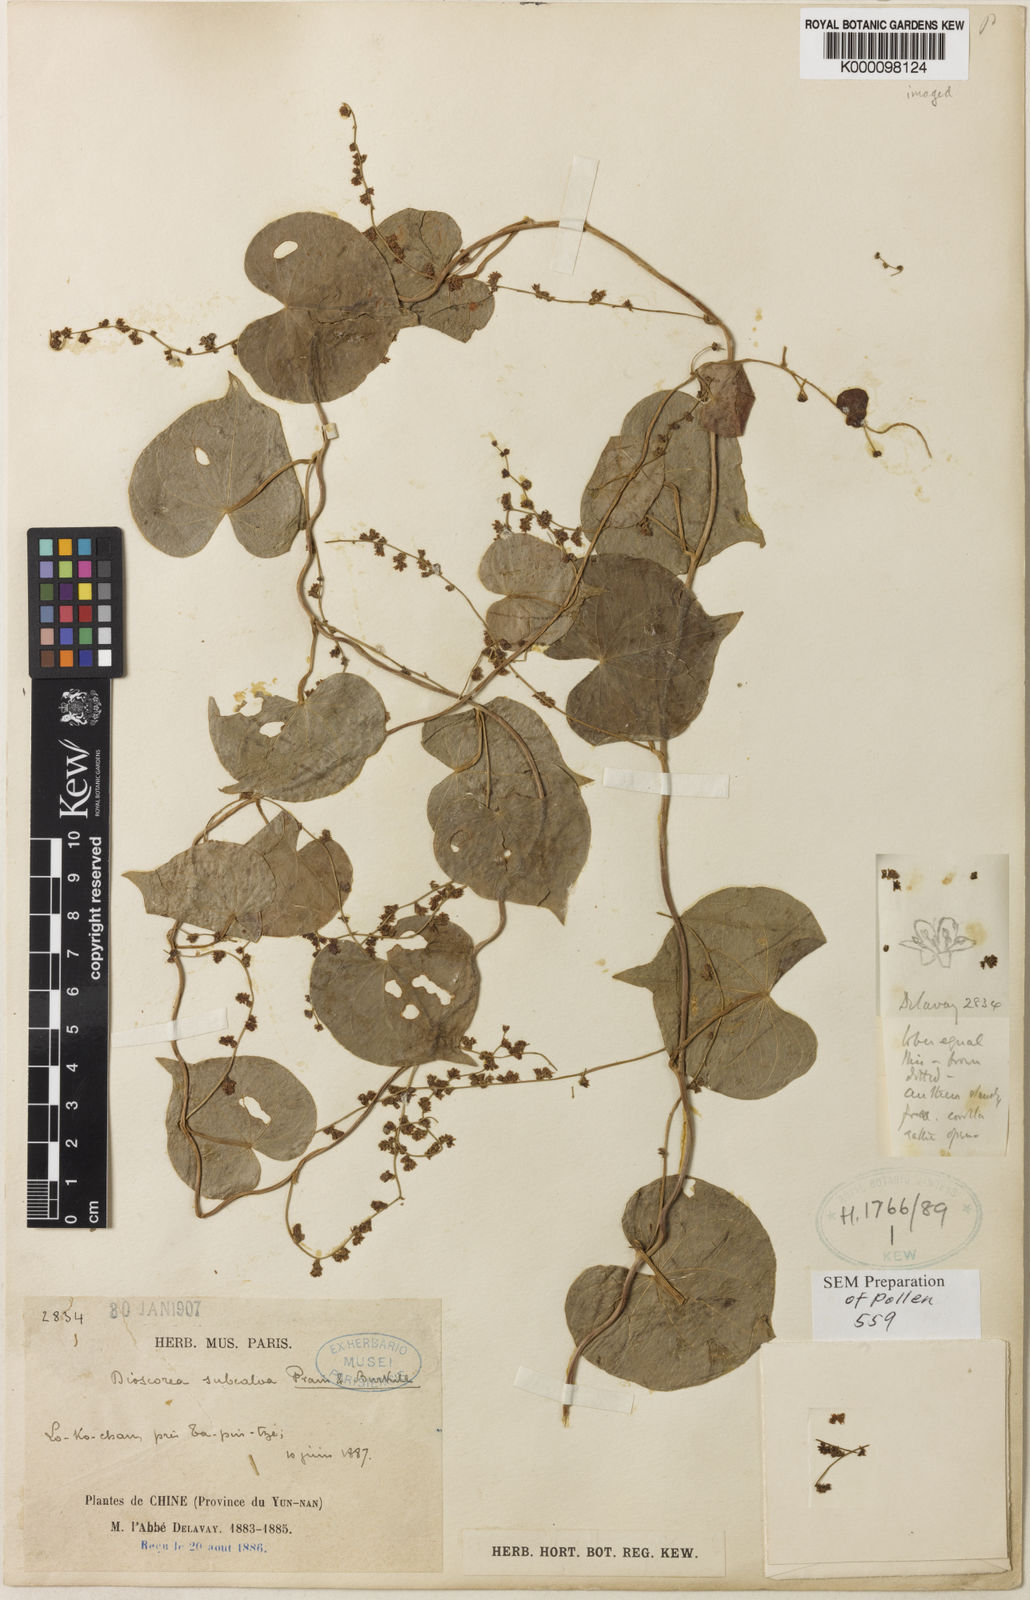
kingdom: Plantae
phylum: Tracheophyta
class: Liliopsida
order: Dioscoreales
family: Dioscoreaceae
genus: Dioscorea
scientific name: Dioscorea subcalva
